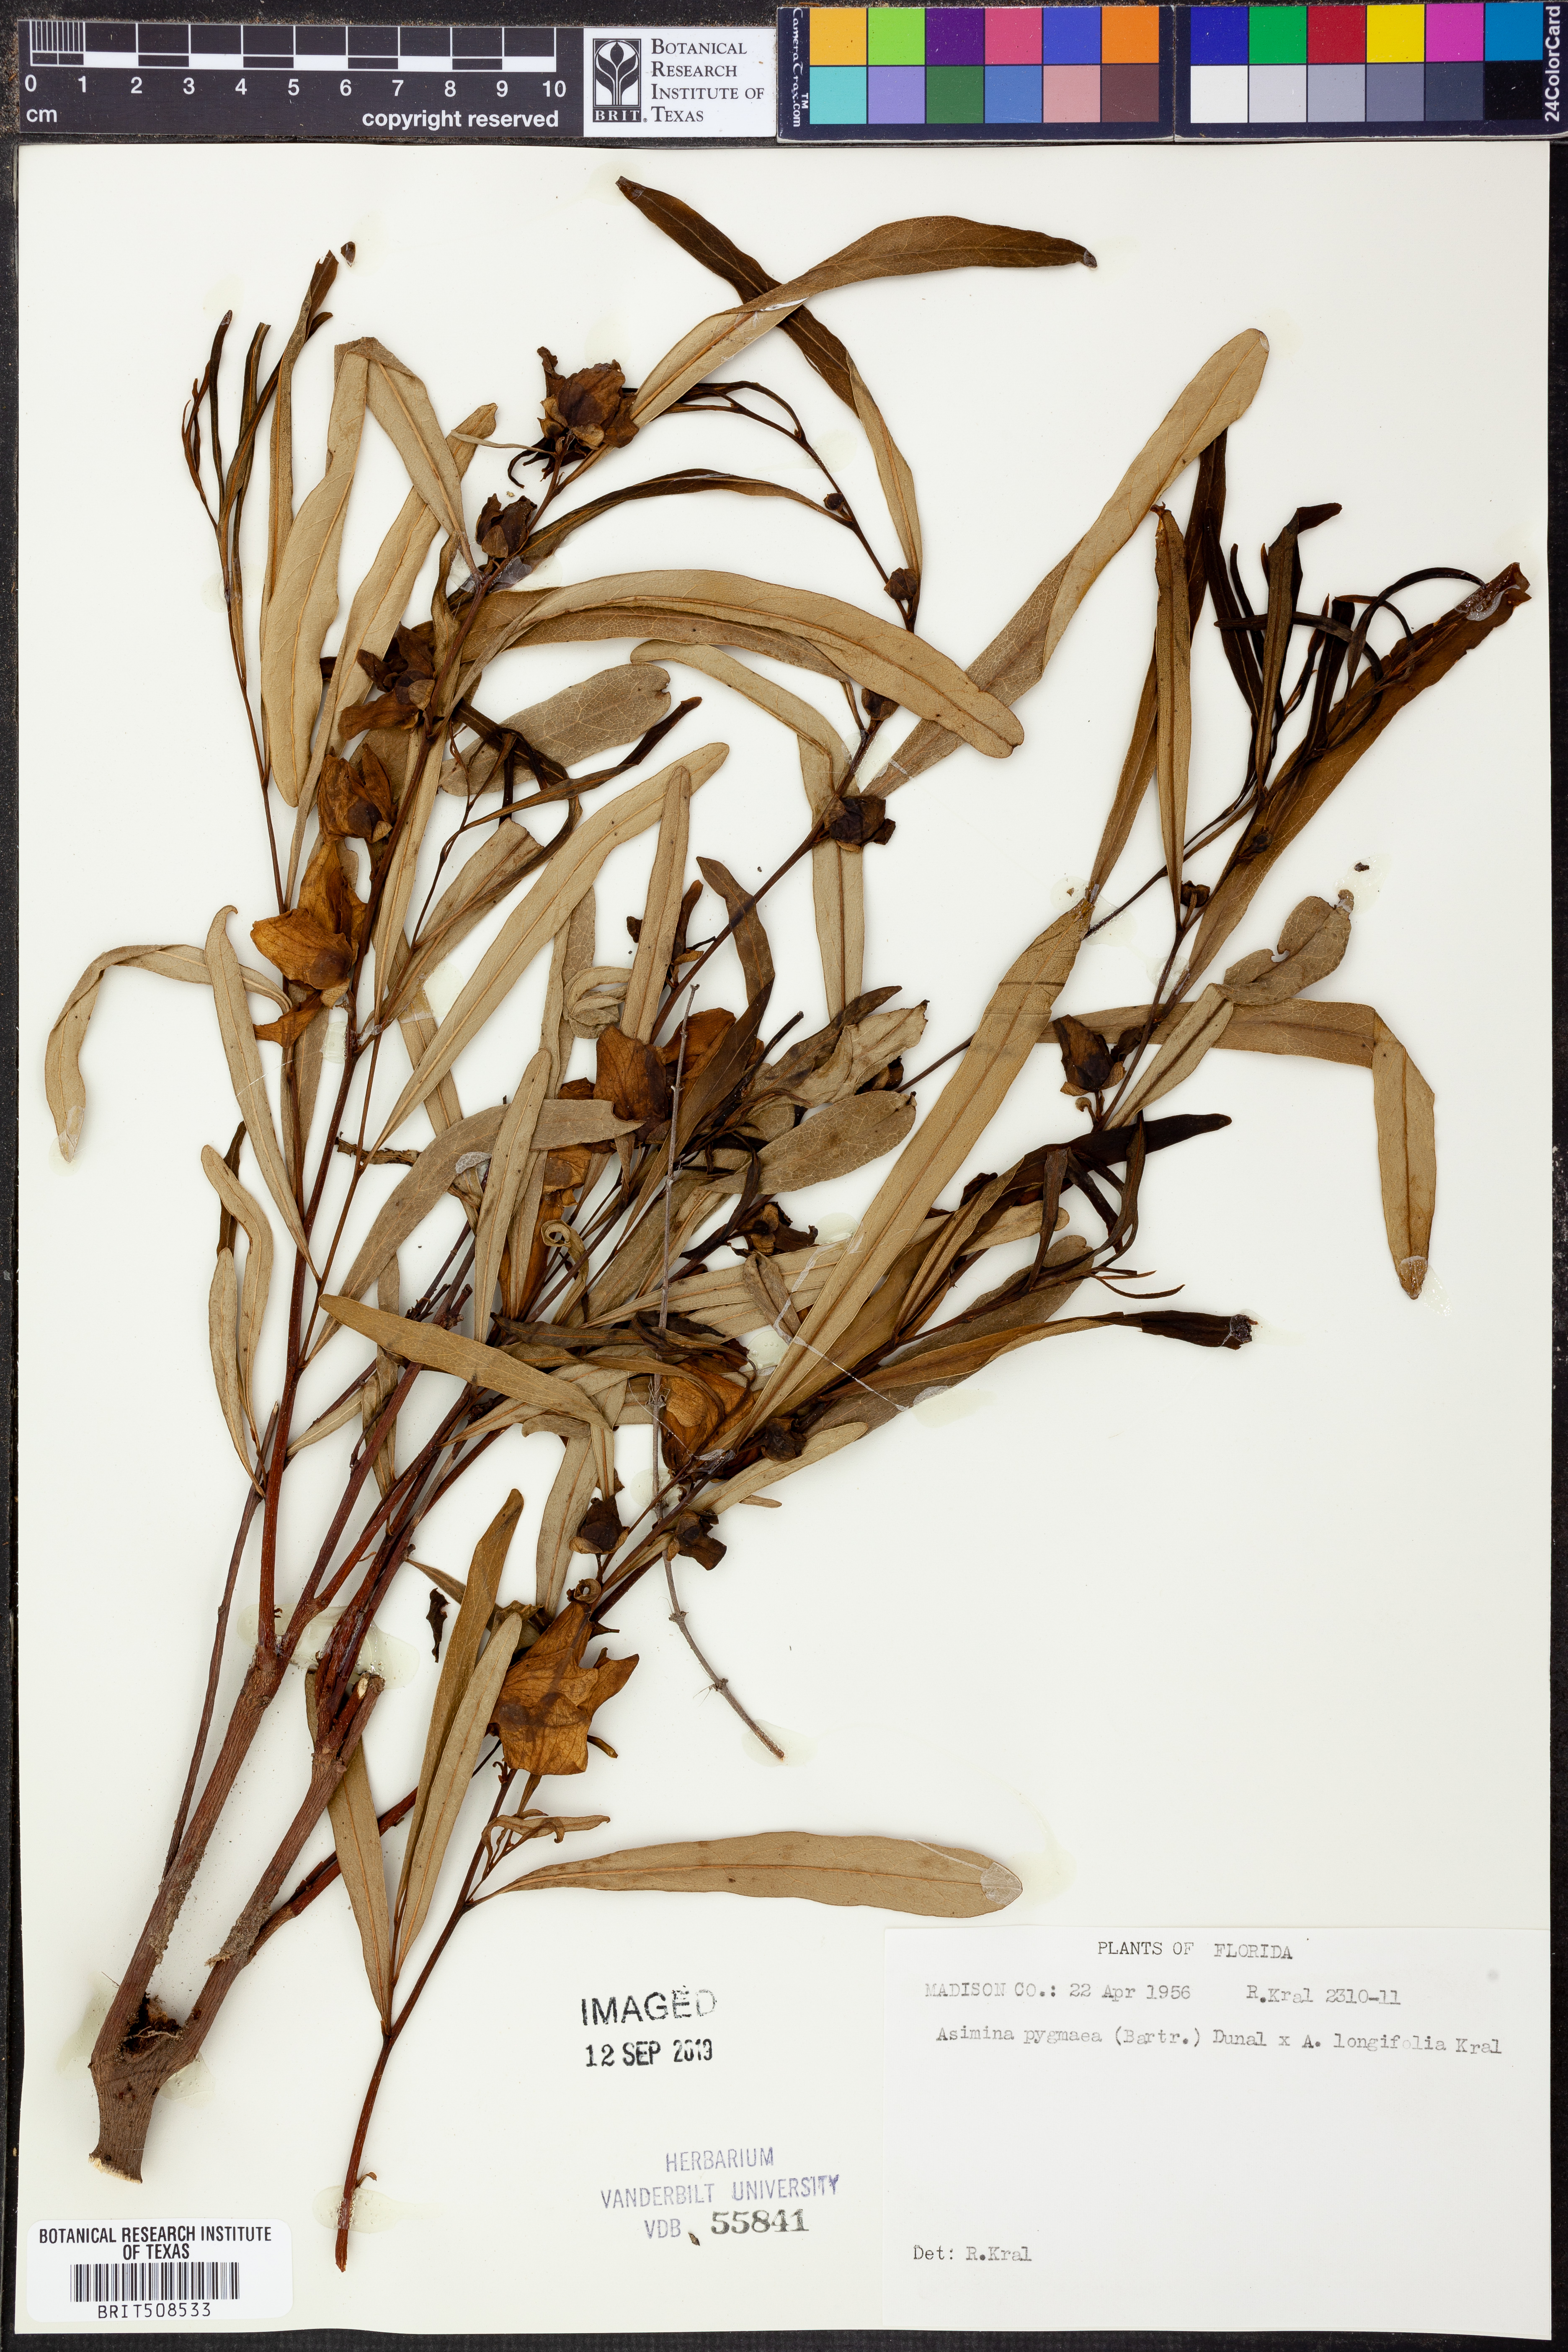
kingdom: Plantae
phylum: Tracheophyta
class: Magnoliopsida
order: Magnoliales
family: Annonaceae
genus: Asimina
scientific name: Asimina pygmaea
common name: Dwarf pawpaw
